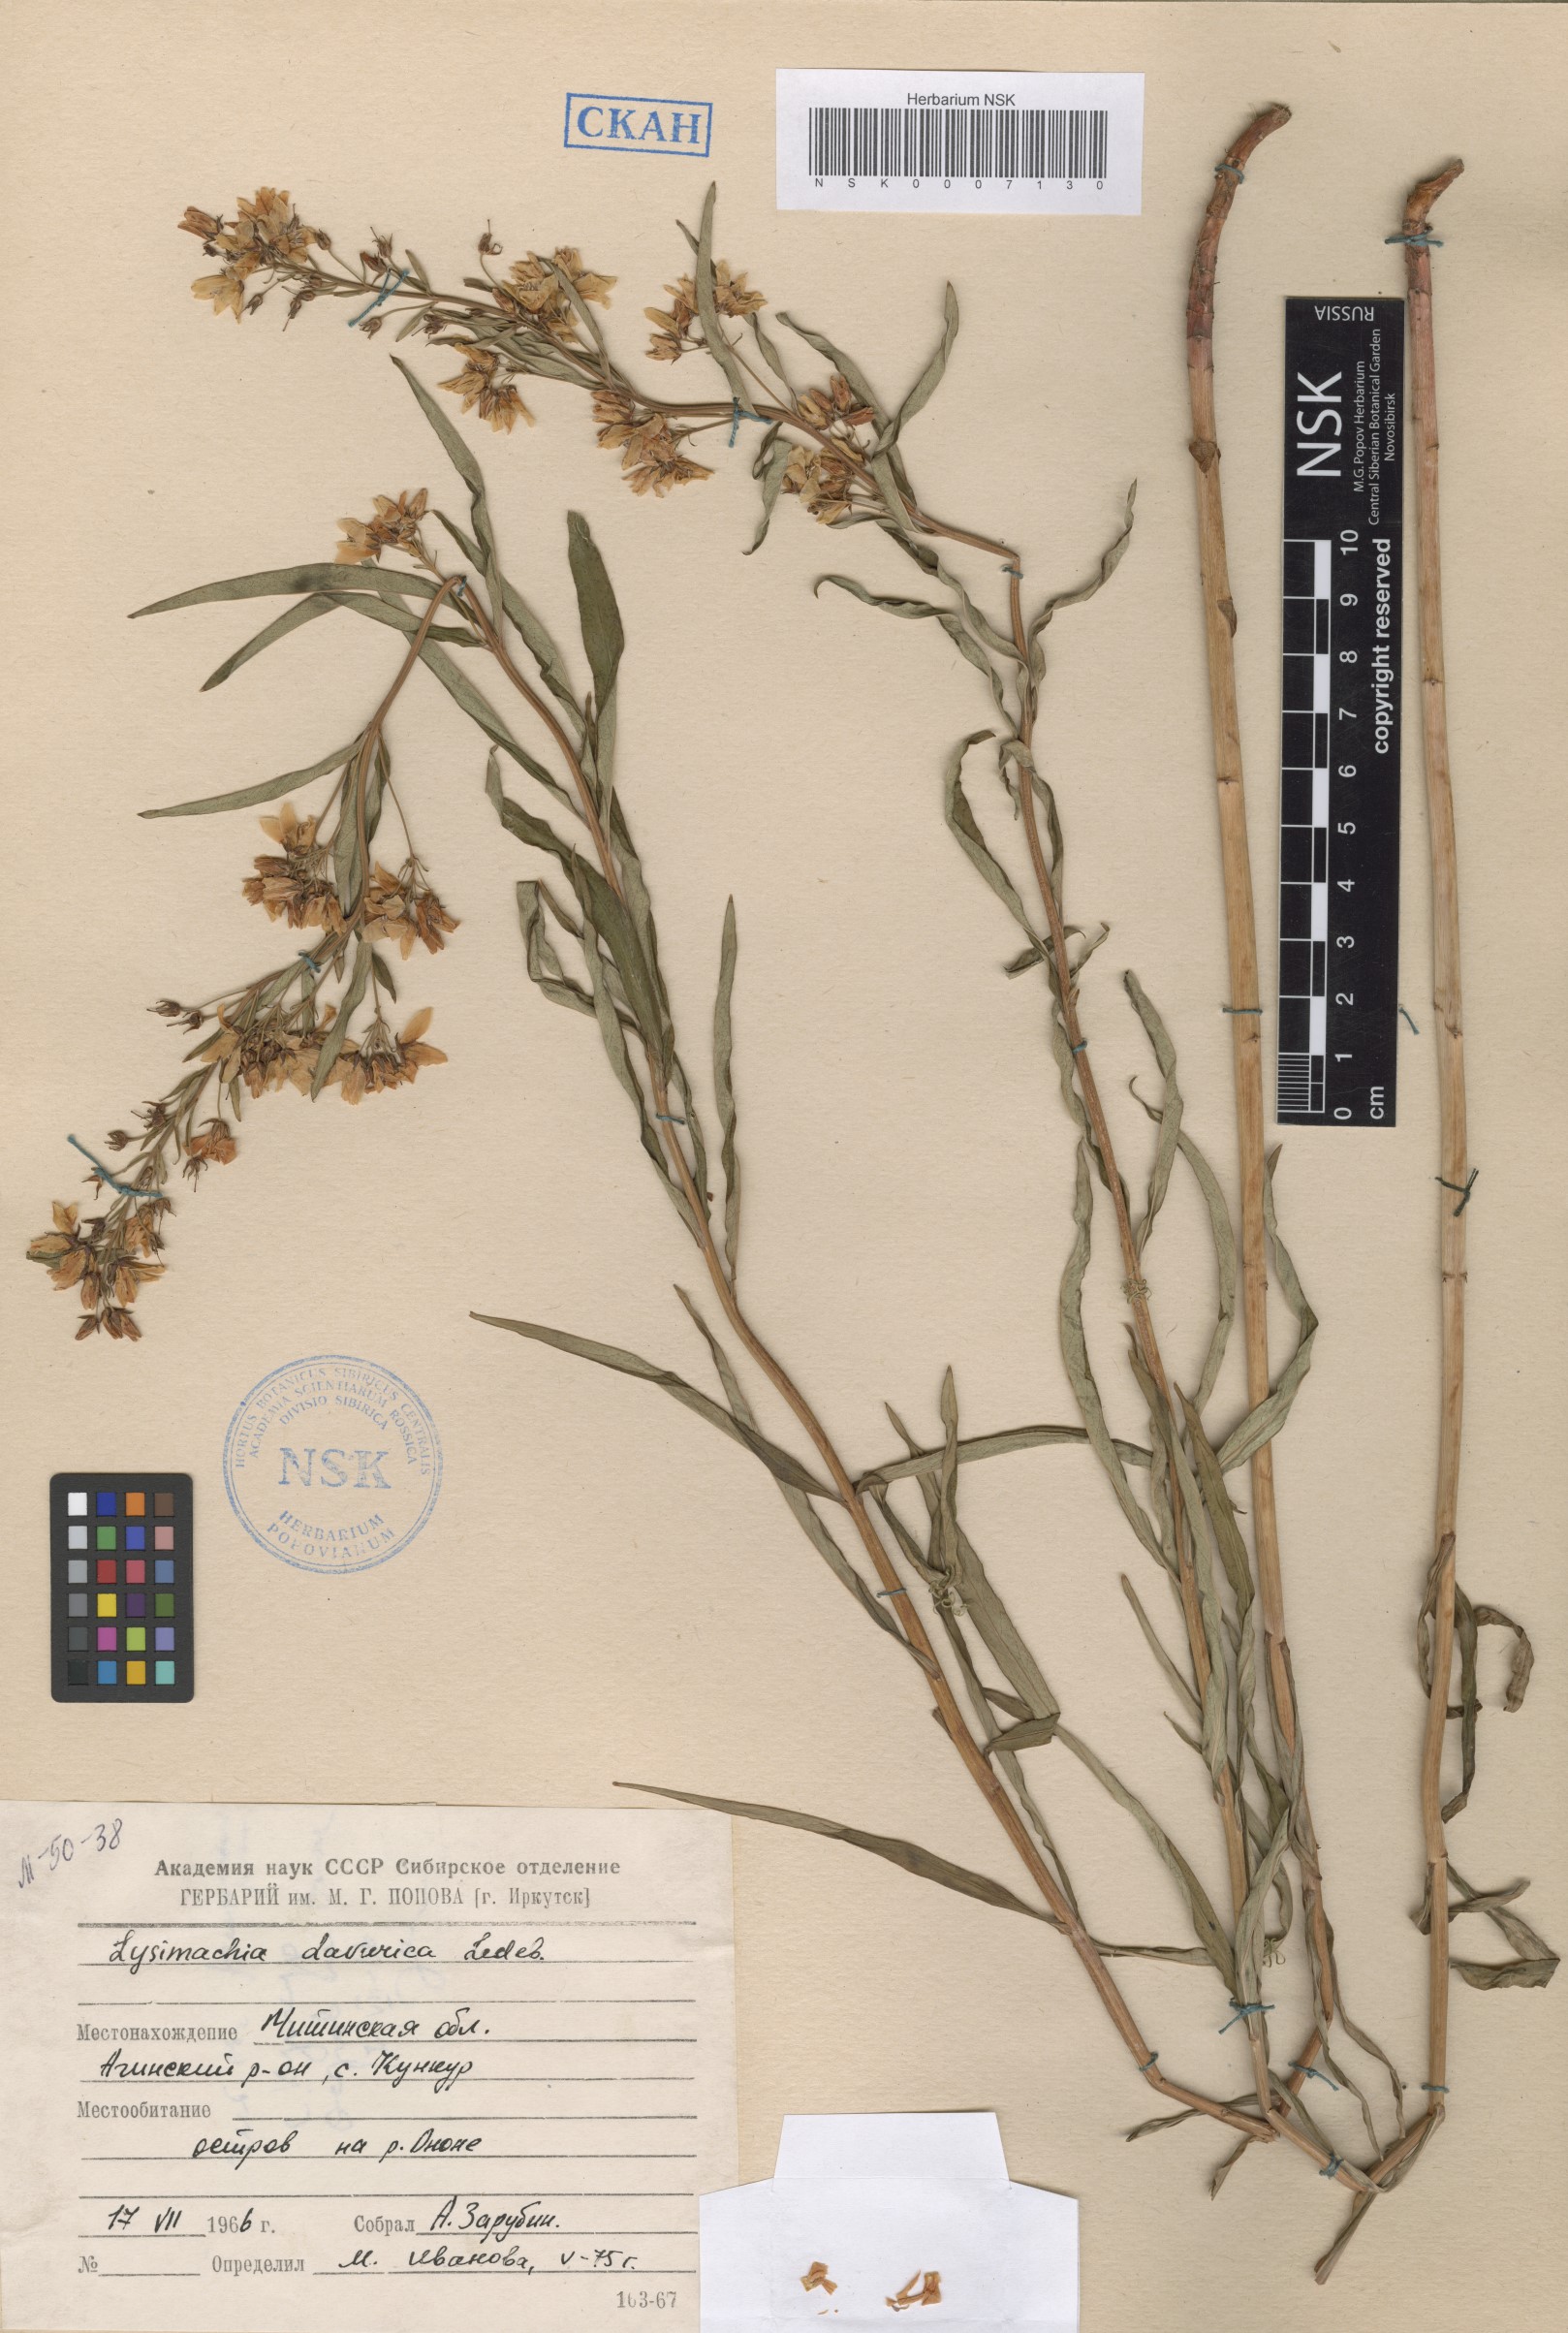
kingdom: Plantae
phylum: Tracheophyta
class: Magnoliopsida
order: Ericales
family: Primulaceae
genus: Lysimachia
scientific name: Lysimachia davurica
